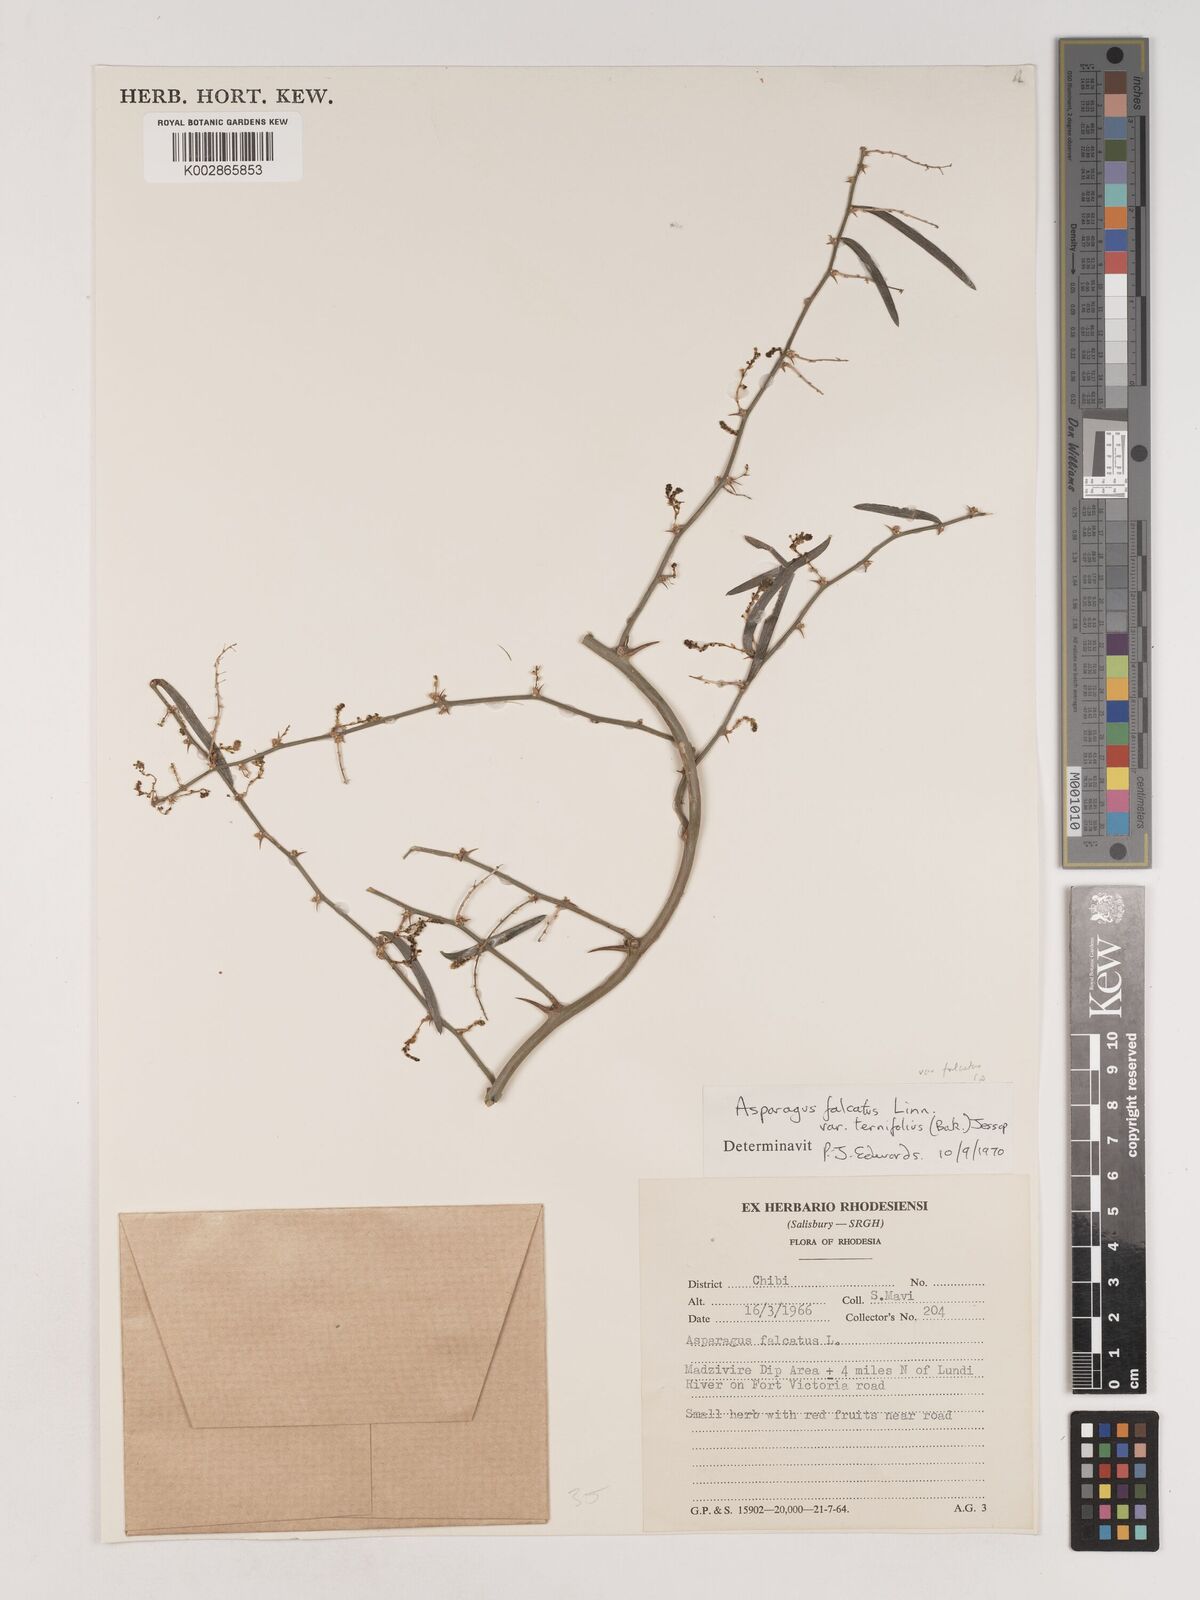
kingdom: Plantae
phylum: Tracheophyta
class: Liliopsida
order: Asparagales
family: Asparagaceae
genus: Asparagus
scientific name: Asparagus falcatus
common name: Asparagus
